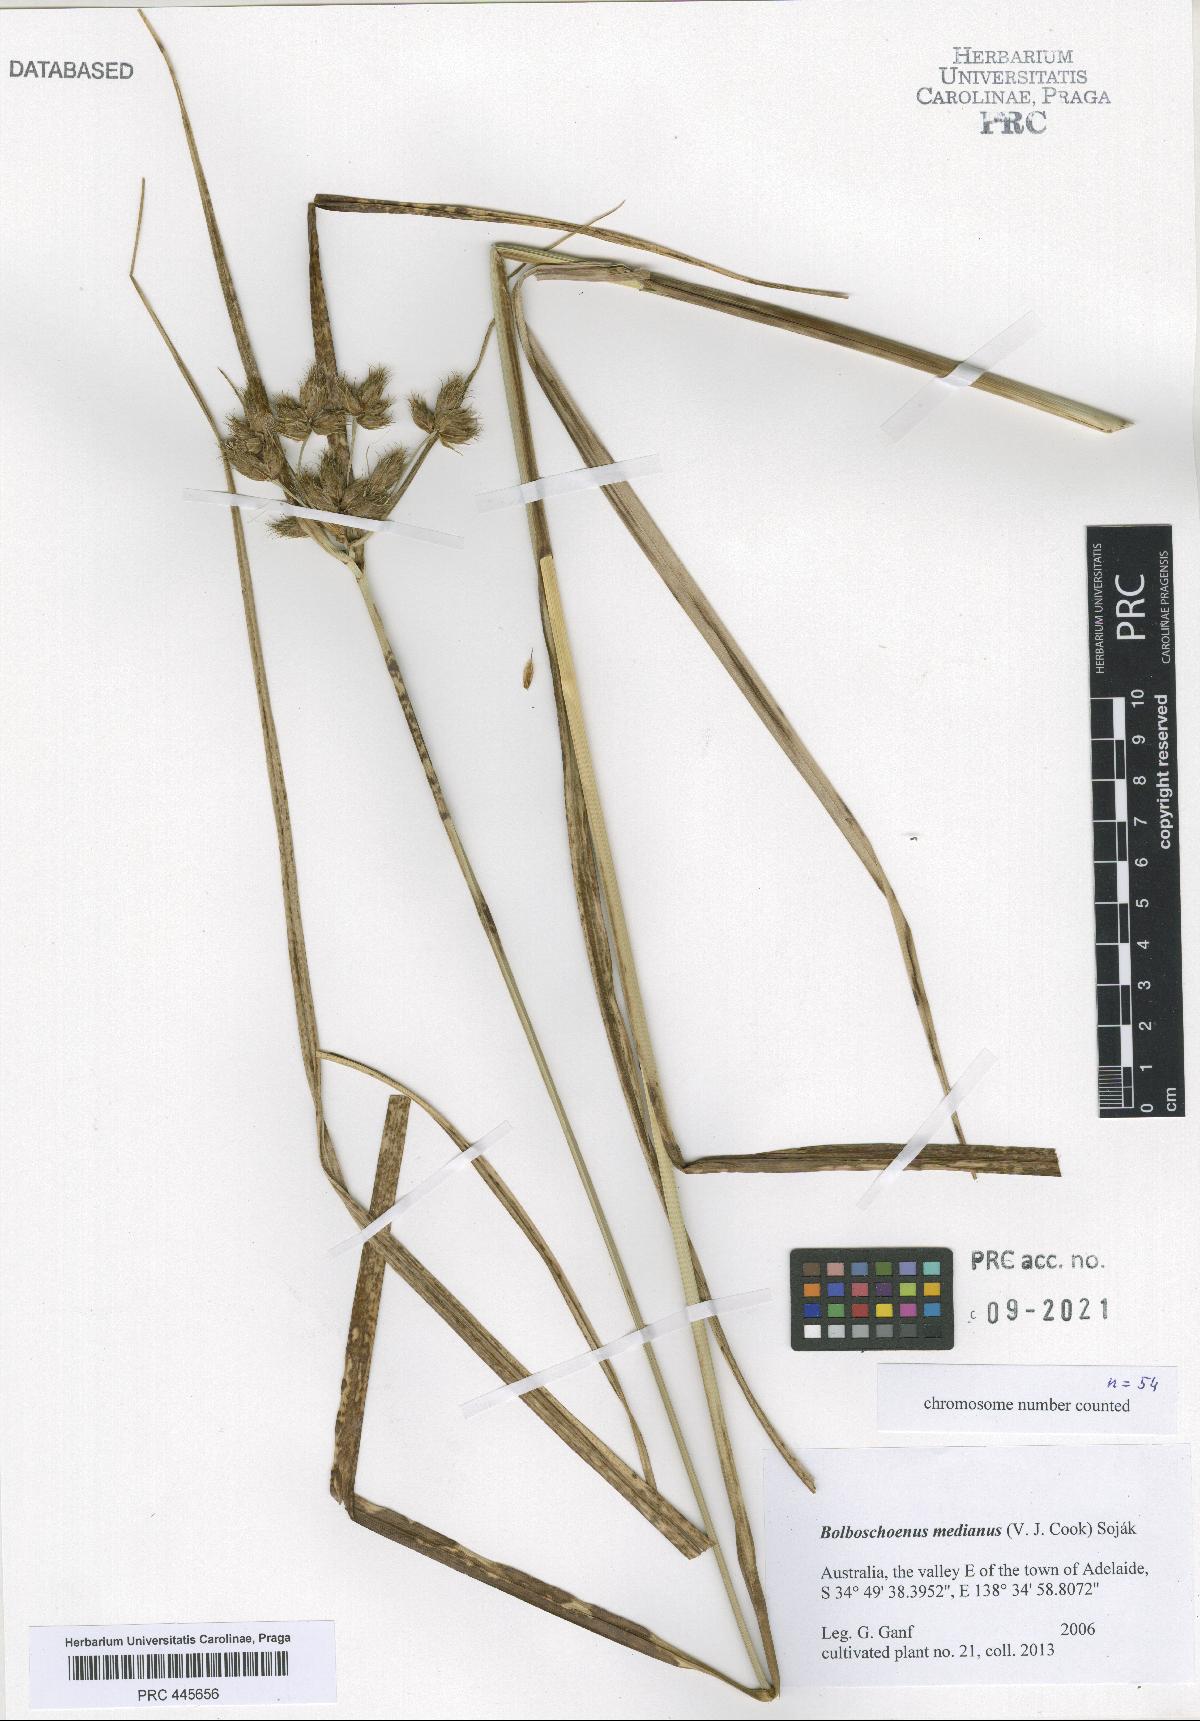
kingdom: Plantae
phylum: Tracheophyta
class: Liliopsida
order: Poales
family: Cyperaceae
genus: Bolboschoenus
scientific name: Bolboschoenus medianus
